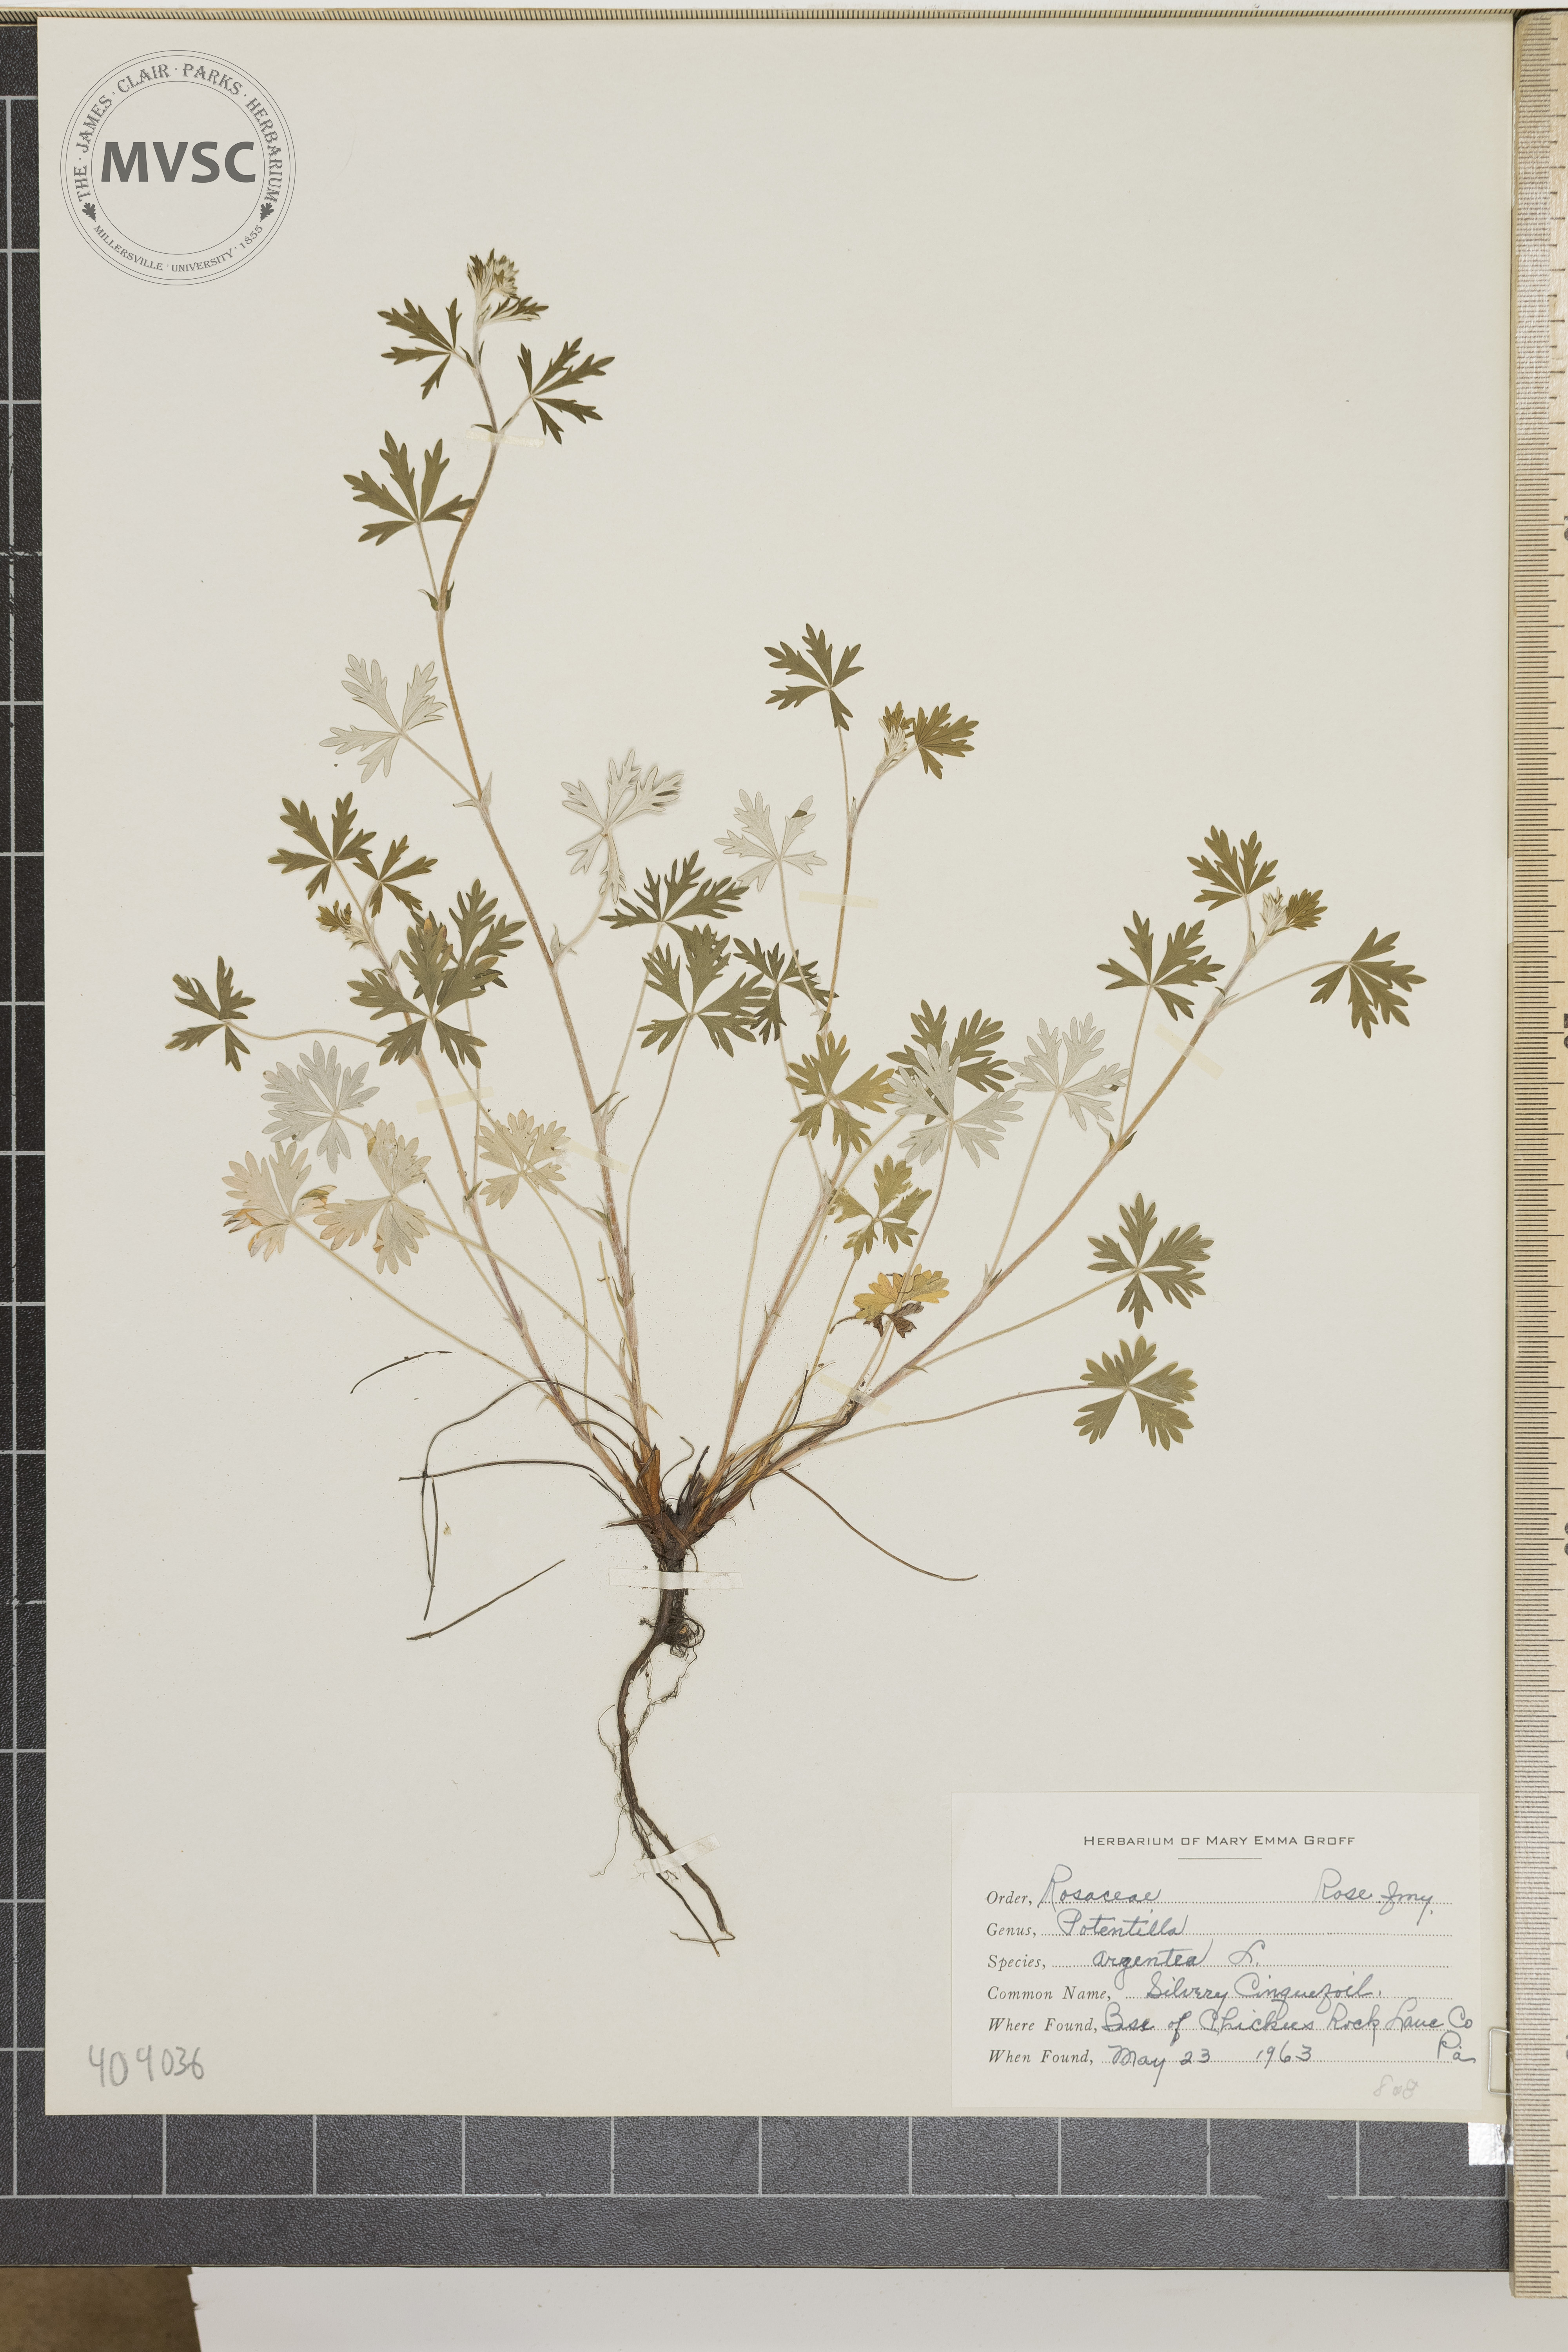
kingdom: Plantae
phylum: Tracheophyta
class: Magnoliopsida
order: Rosales
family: Rosaceae
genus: Potentilla
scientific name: Potentilla argentea
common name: Silvery Cinquefoil
